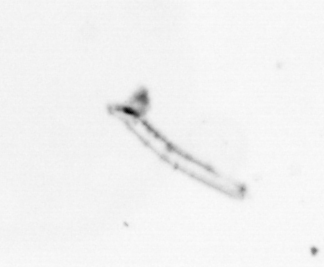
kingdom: Animalia
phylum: Mollusca
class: Gastropoda
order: Pteropoda
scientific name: Pteropoda
